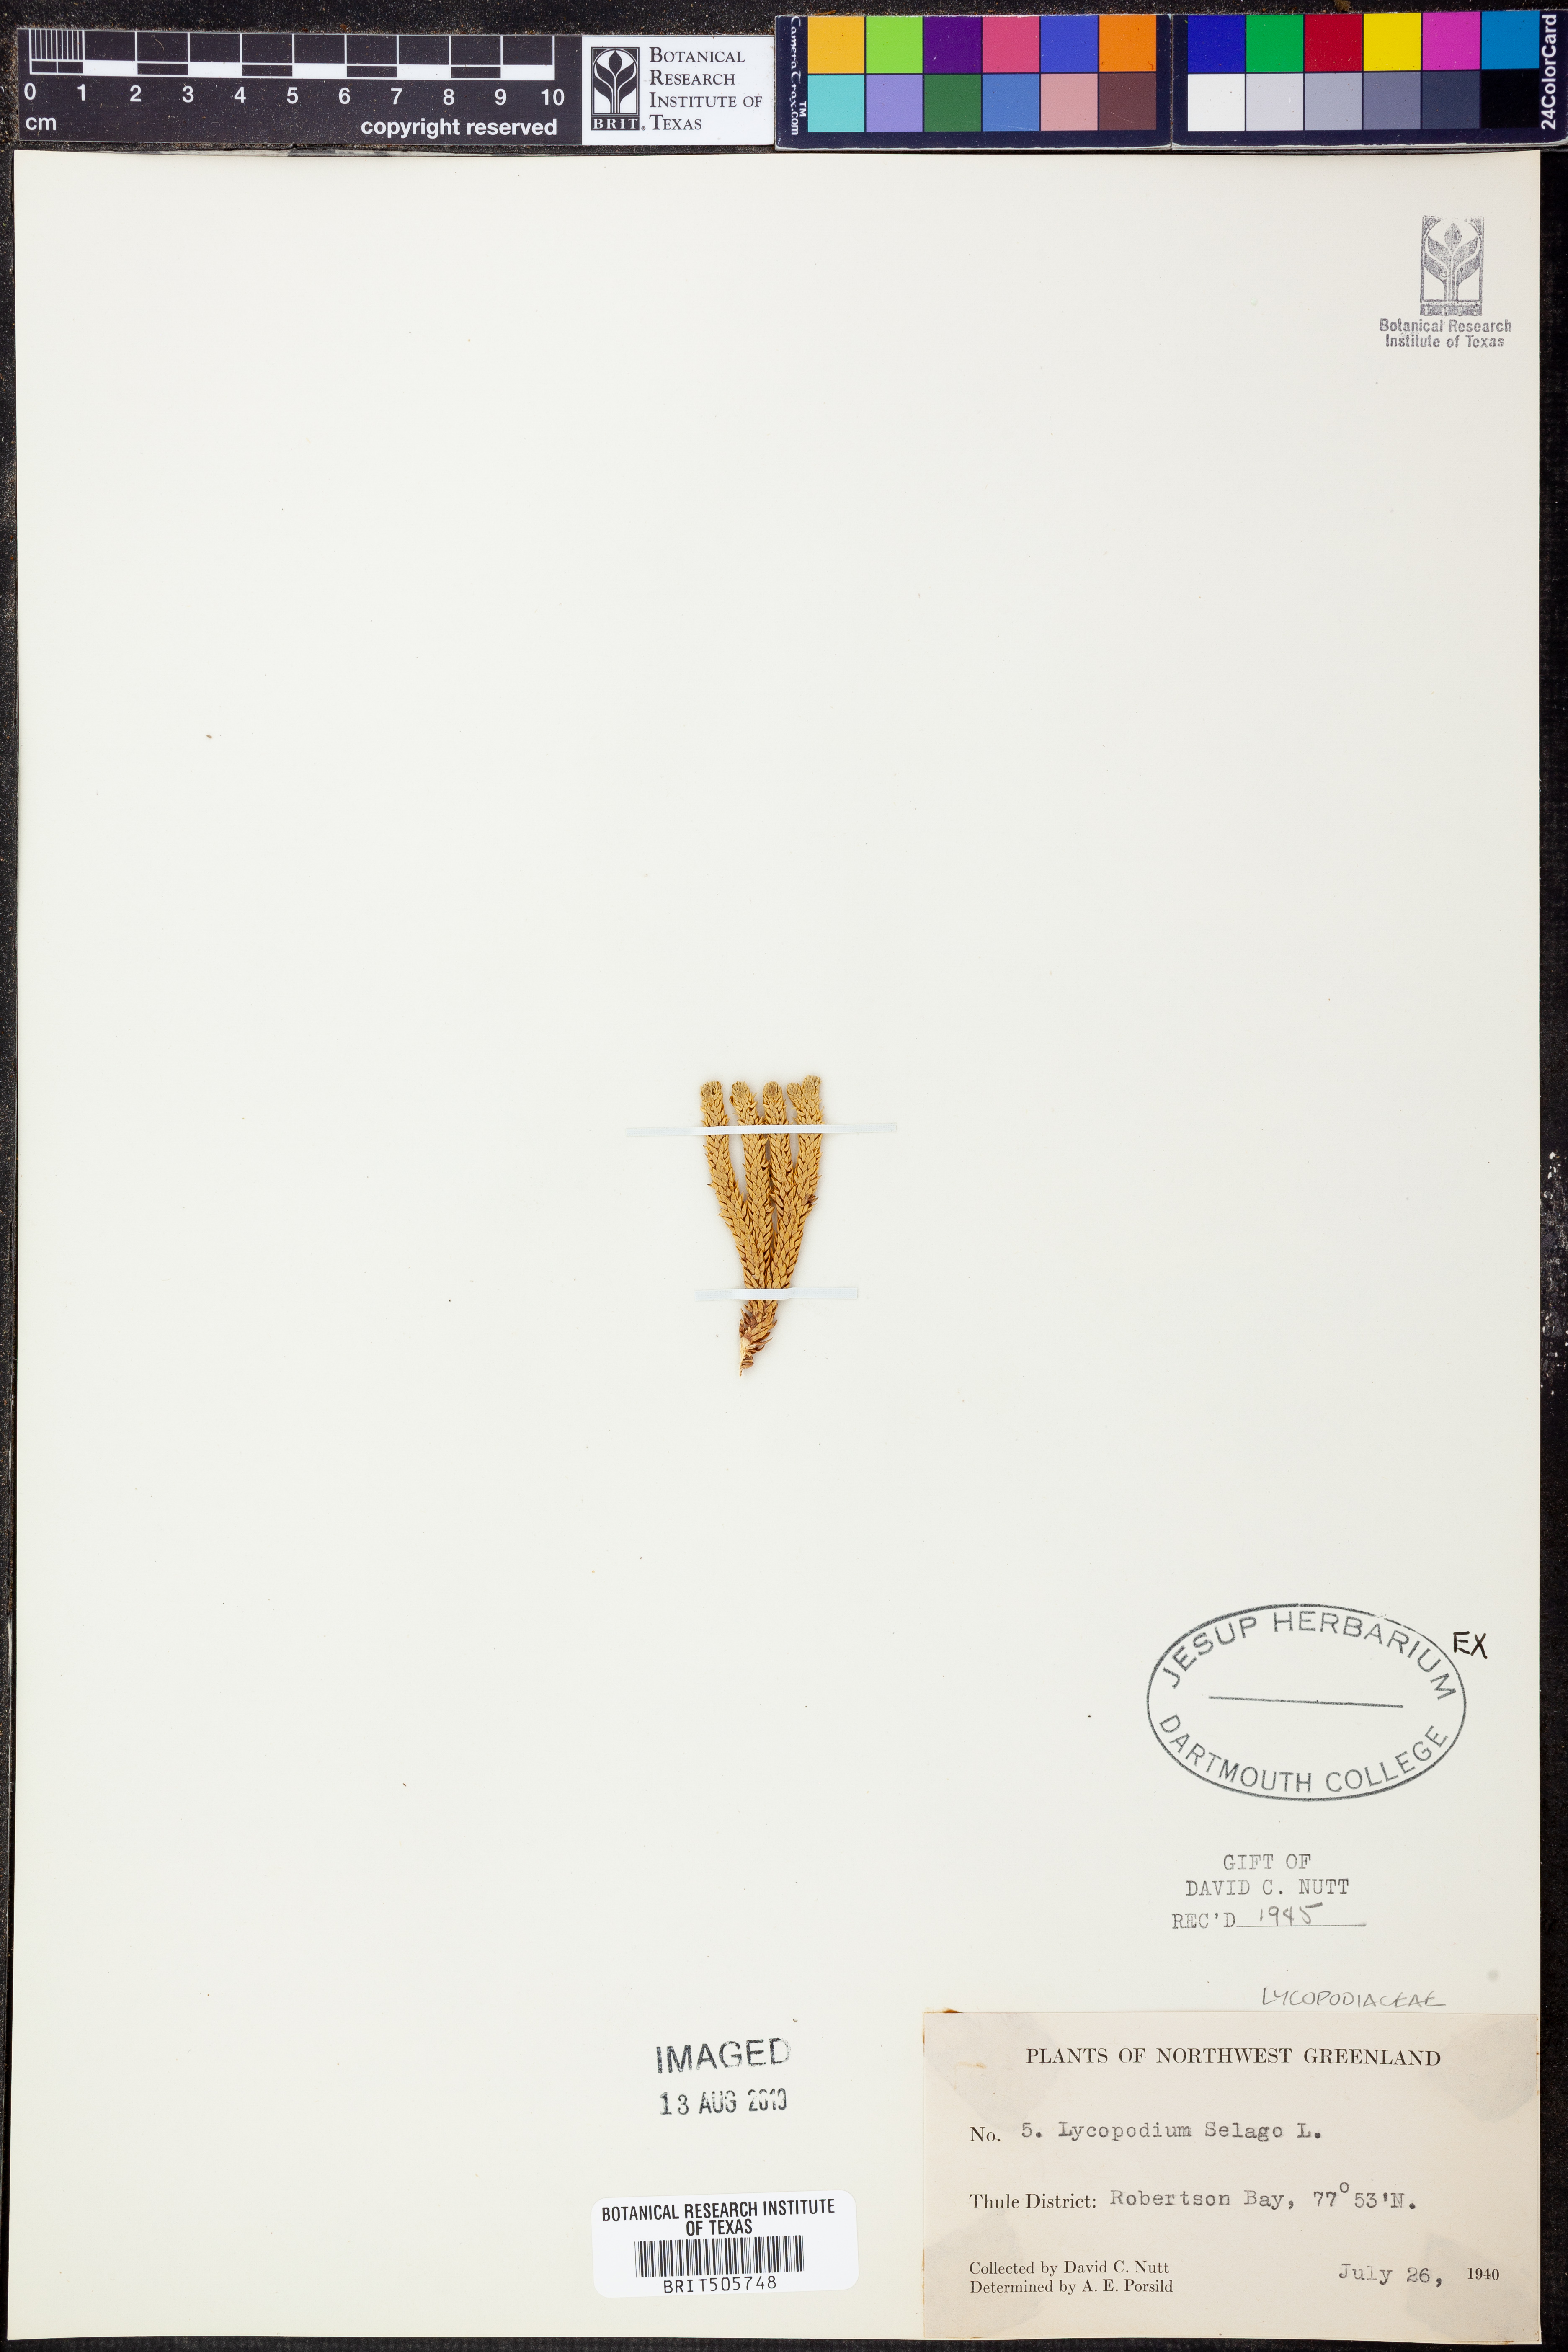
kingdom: Plantae
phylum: Tracheophyta
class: Lycopodiopsida
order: Lycopodiales
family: Lycopodiaceae
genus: Huperzia
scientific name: Huperzia selago
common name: Northern firmoss
